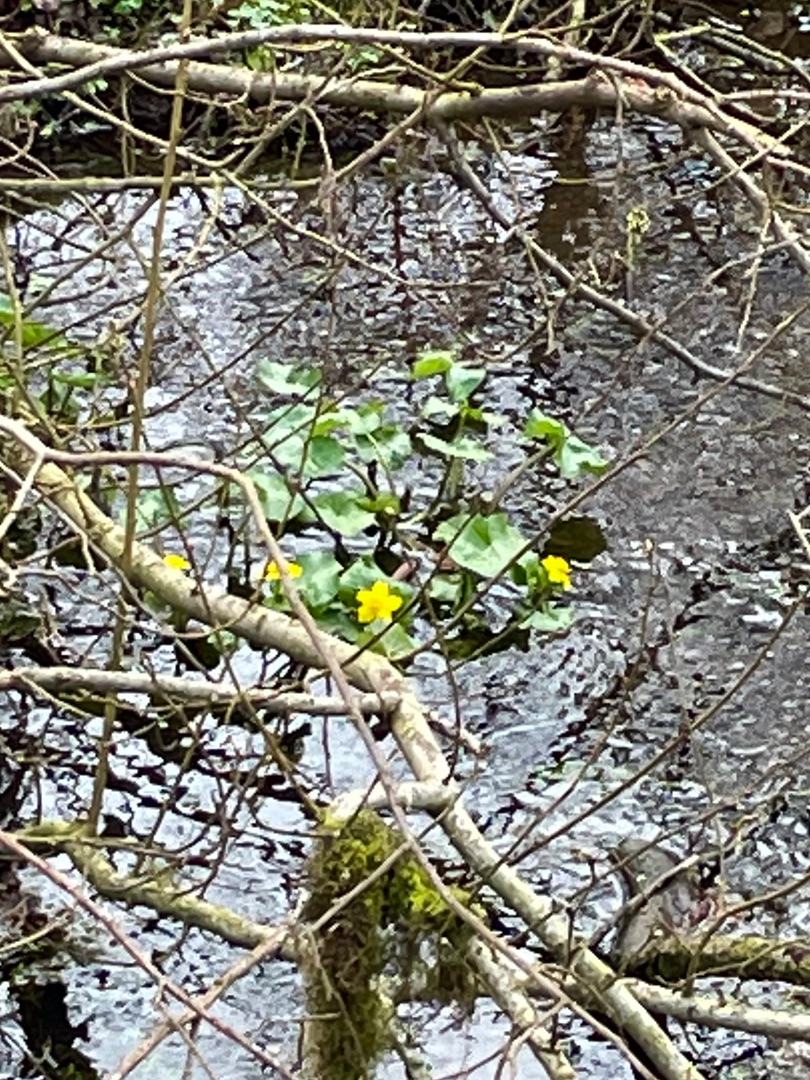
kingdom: Plantae
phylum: Tracheophyta
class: Magnoliopsida
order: Ranunculales
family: Ranunculaceae
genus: Caltha
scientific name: Caltha palustris
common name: Eng-kabbeleje
